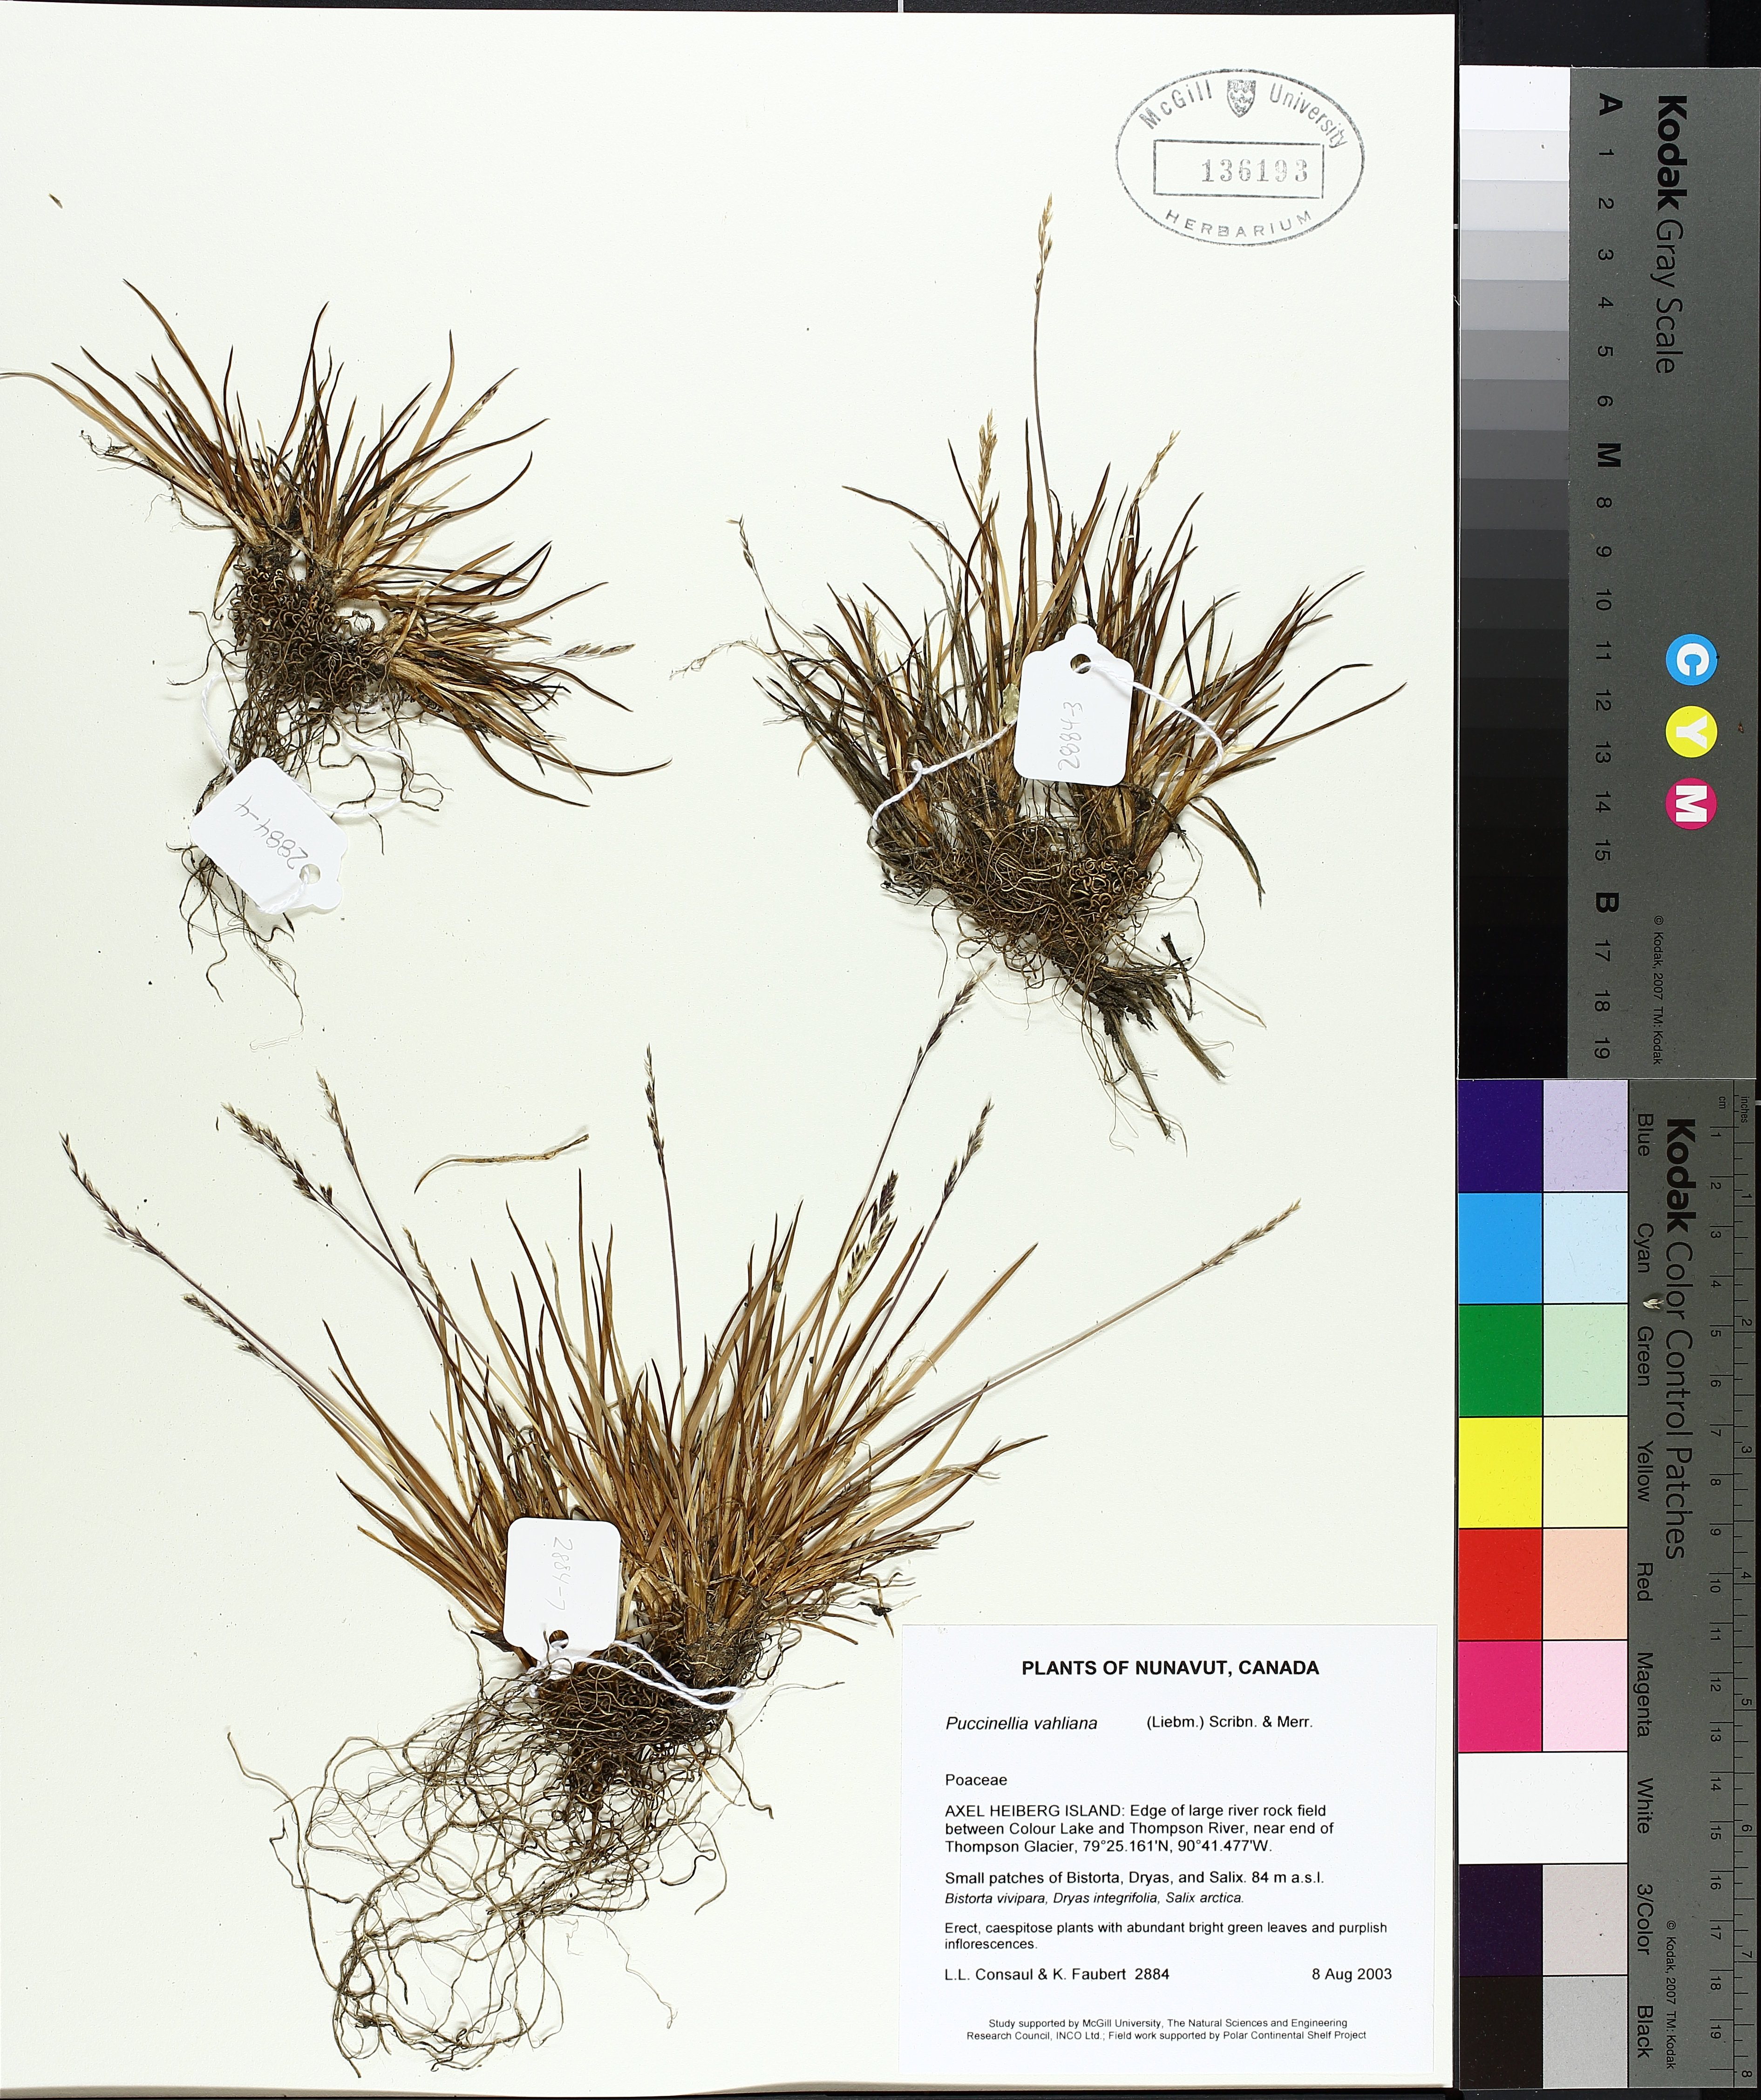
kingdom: Plantae
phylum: Tracheophyta
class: Liliopsida
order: Poales
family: Poaceae
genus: Puccinellia
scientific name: Puccinellia vahliana
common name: Vahl's alkaligrass
